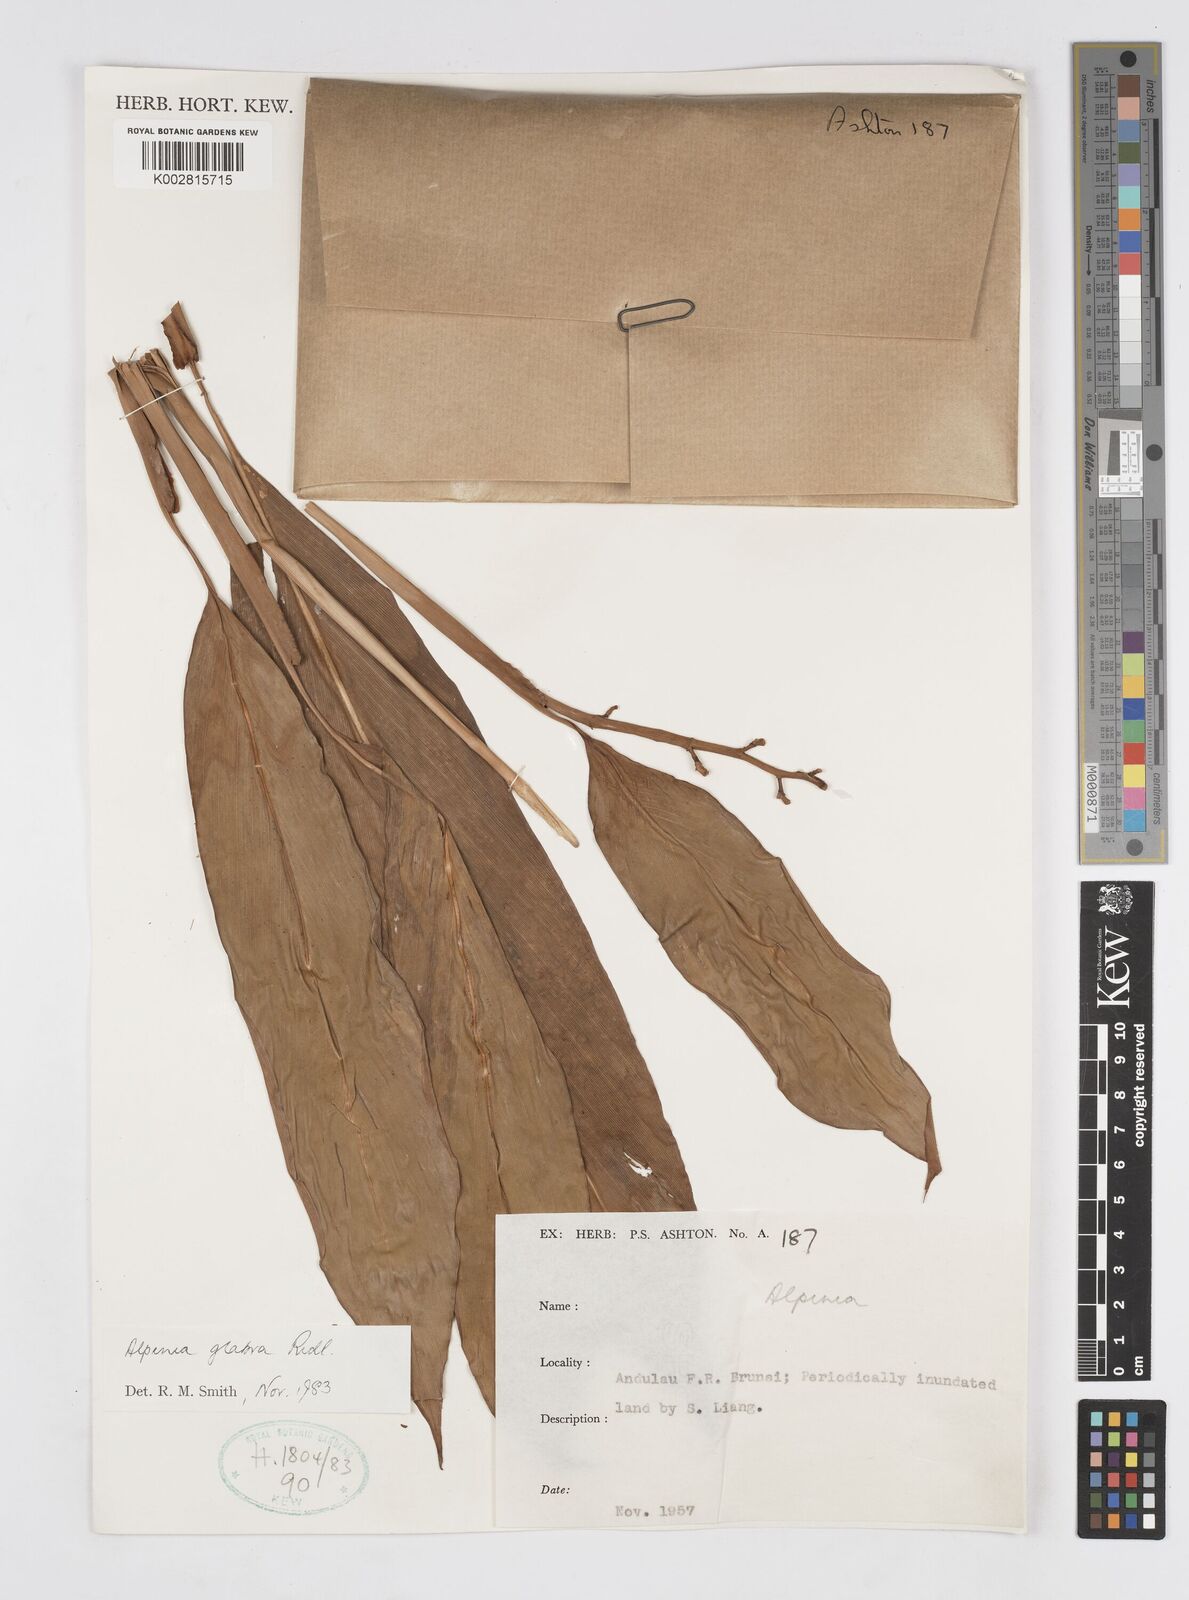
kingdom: Plantae
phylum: Tracheophyta
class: Liliopsida
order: Zingiberales
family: Zingiberaceae
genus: Alpinia
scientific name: Alpinia glabra
